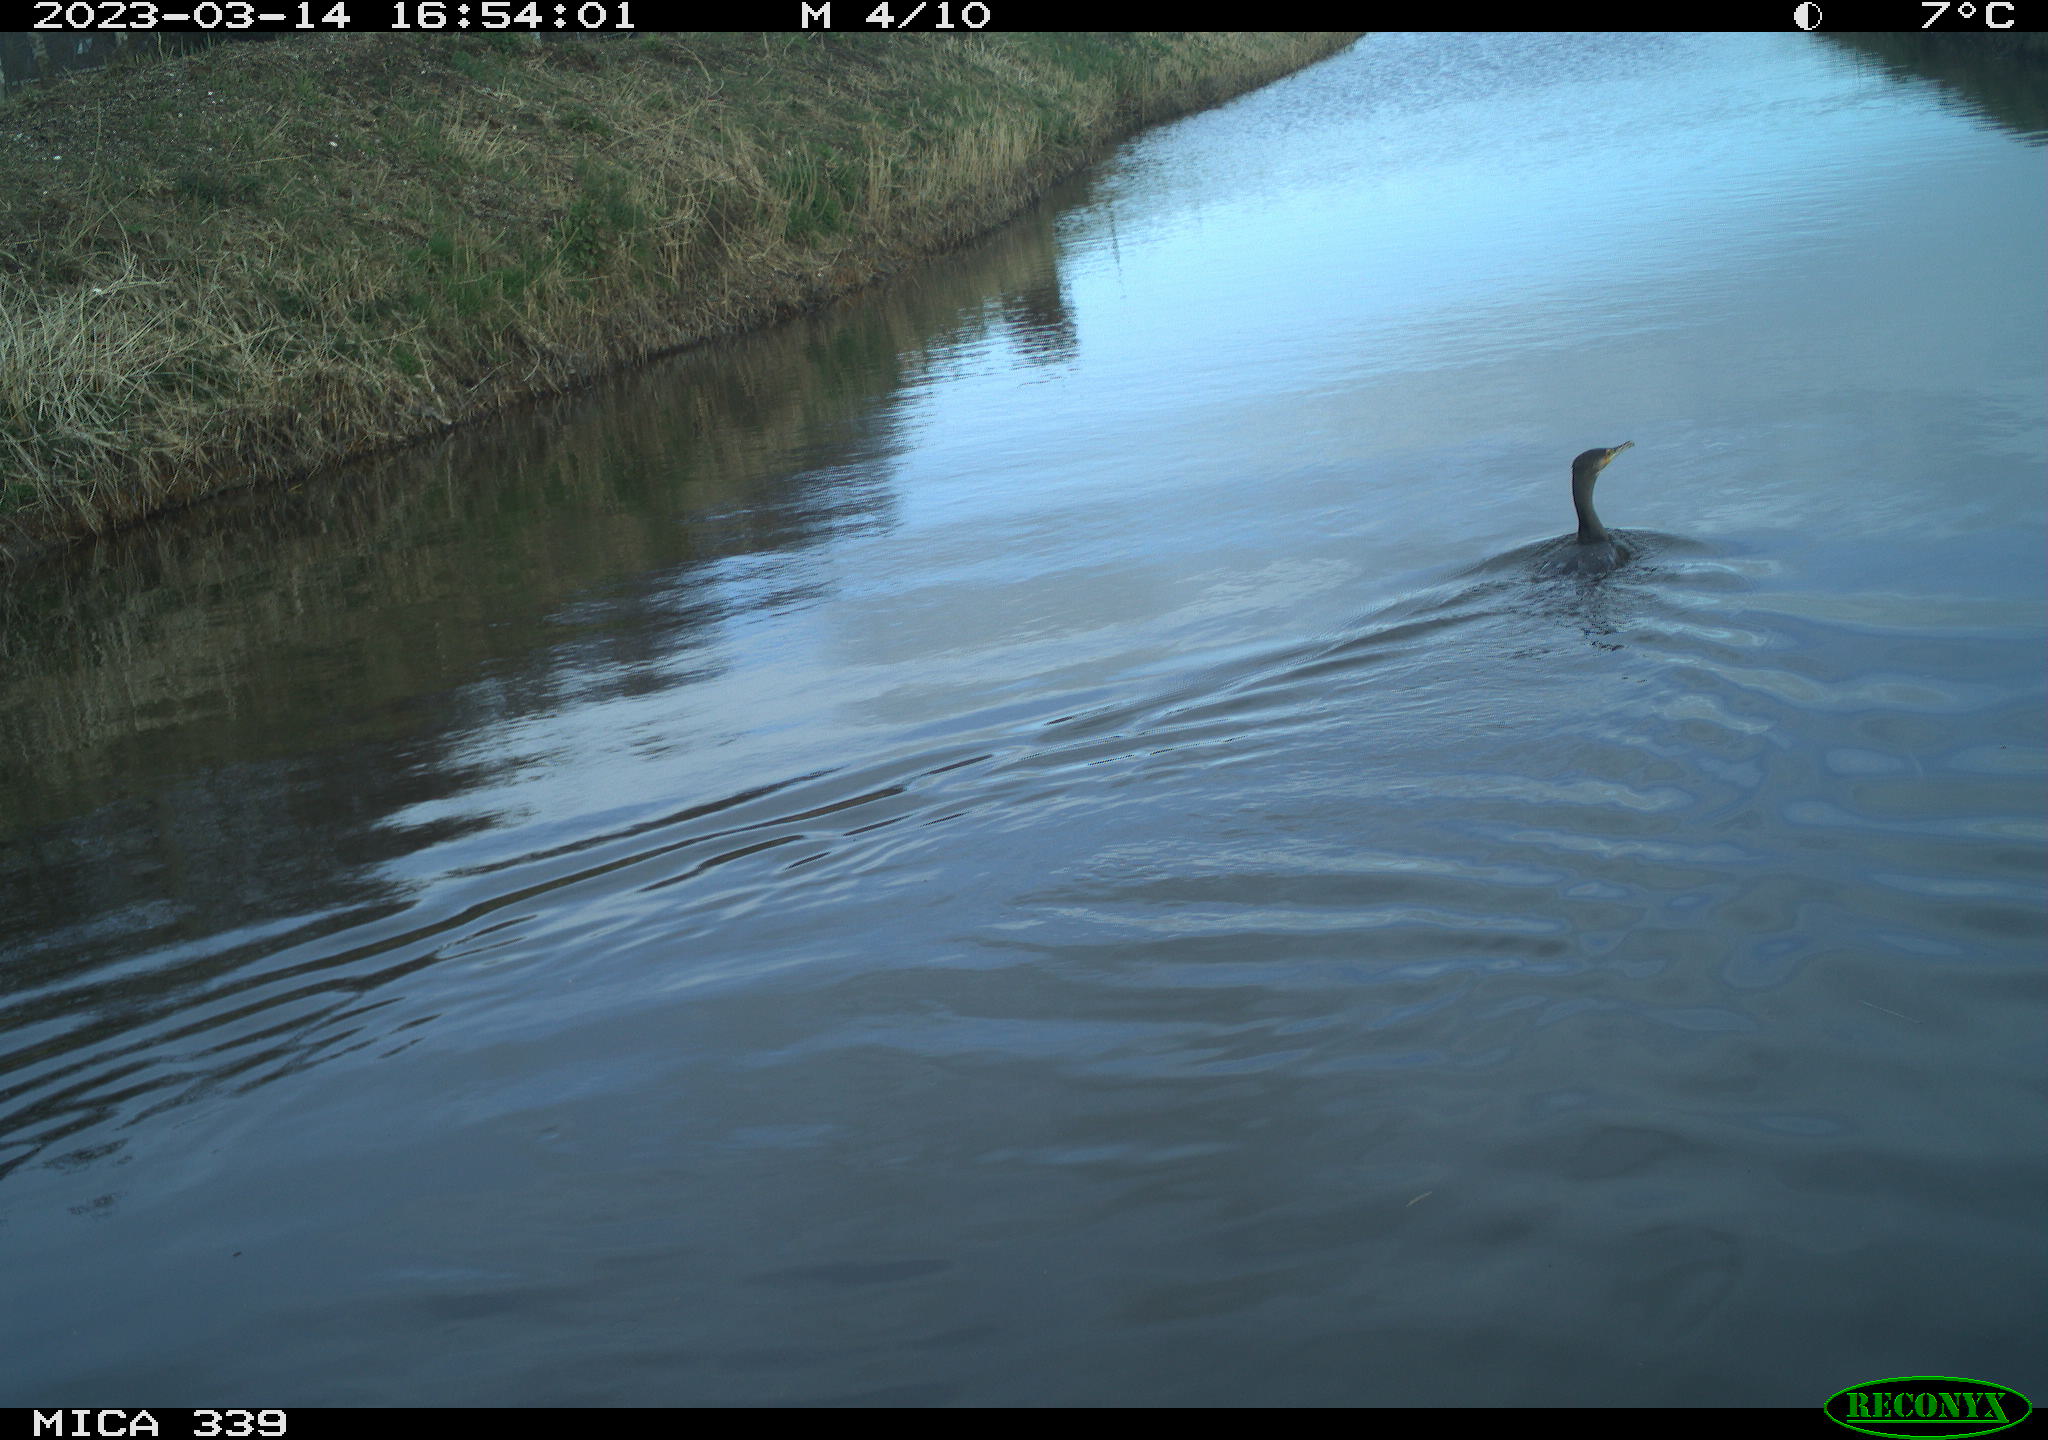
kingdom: Animalia
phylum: Chordata
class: Aves
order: Anseriformes
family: Anatidae
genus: Anas
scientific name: Anas
